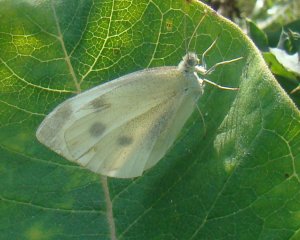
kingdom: Animalia
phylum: Arthropoda
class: Insecta
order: Lepidoptera
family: Pieridae
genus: Pieris
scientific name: Pieris rapae
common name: Cabbage White
